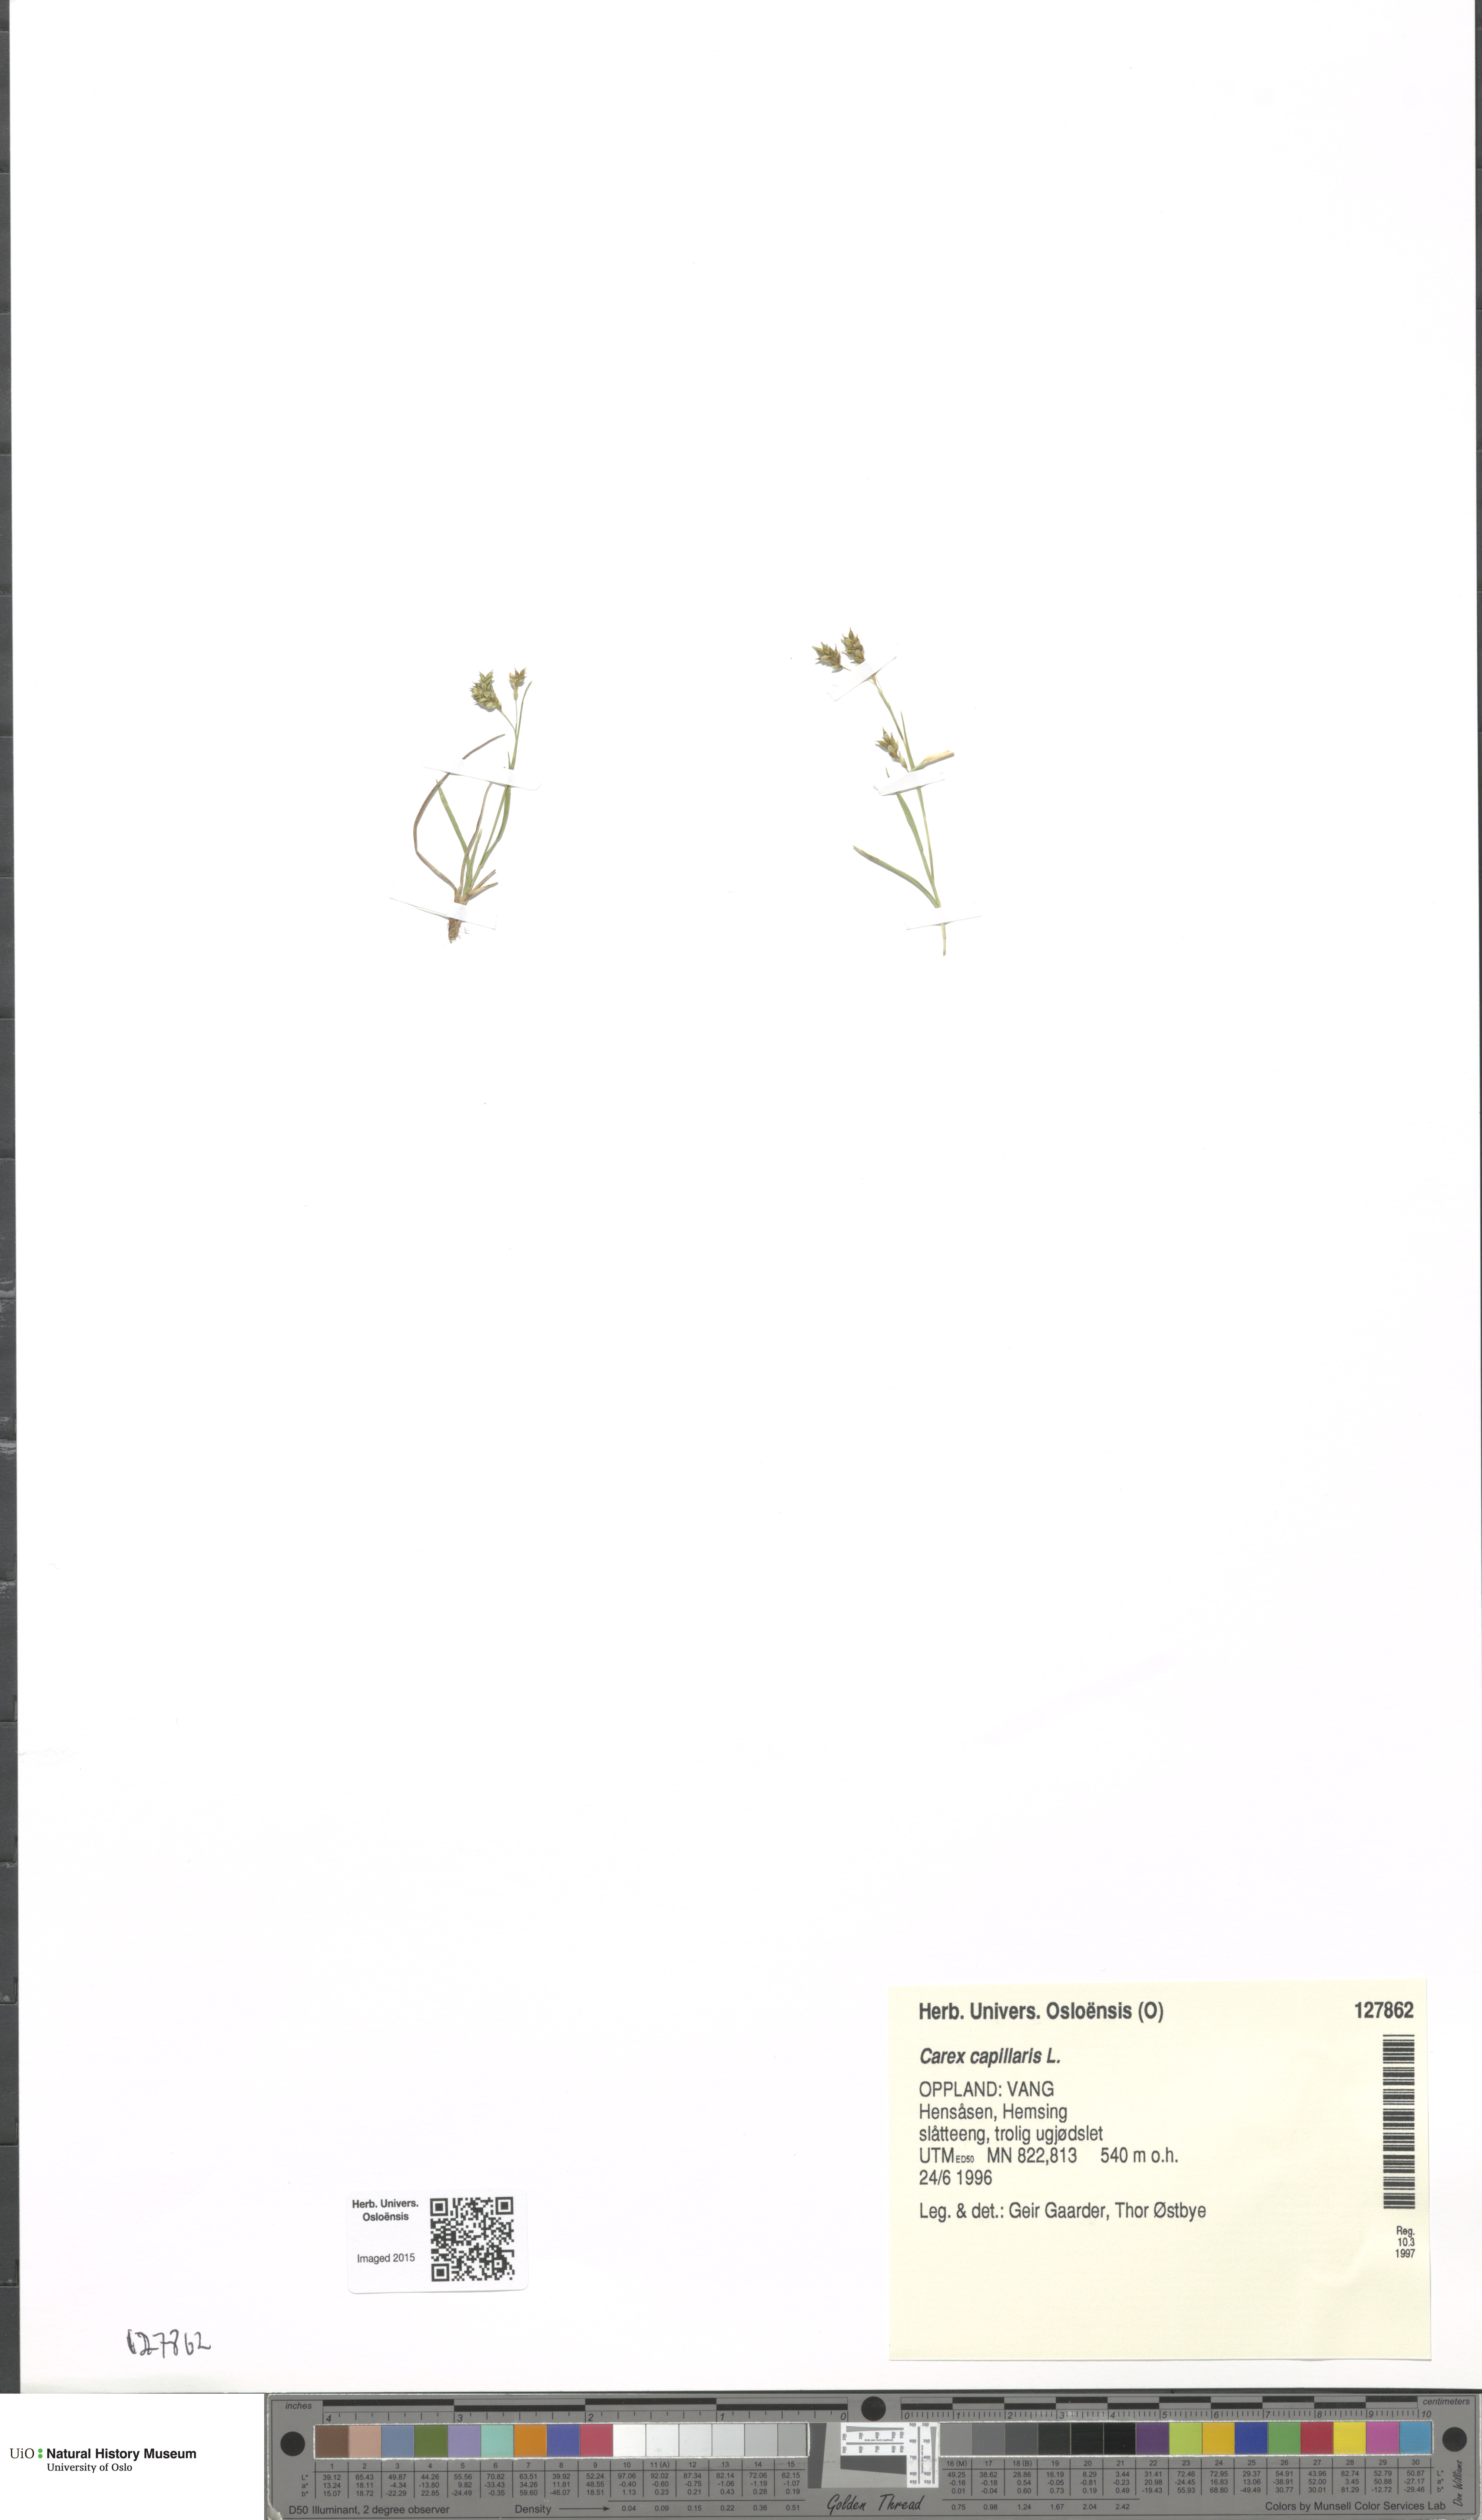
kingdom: Plantae
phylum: Tracheophyta
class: Liliopsida
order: Poales
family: Cyperaceae
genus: Carex
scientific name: Carex capillaris
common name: Hair sedge
